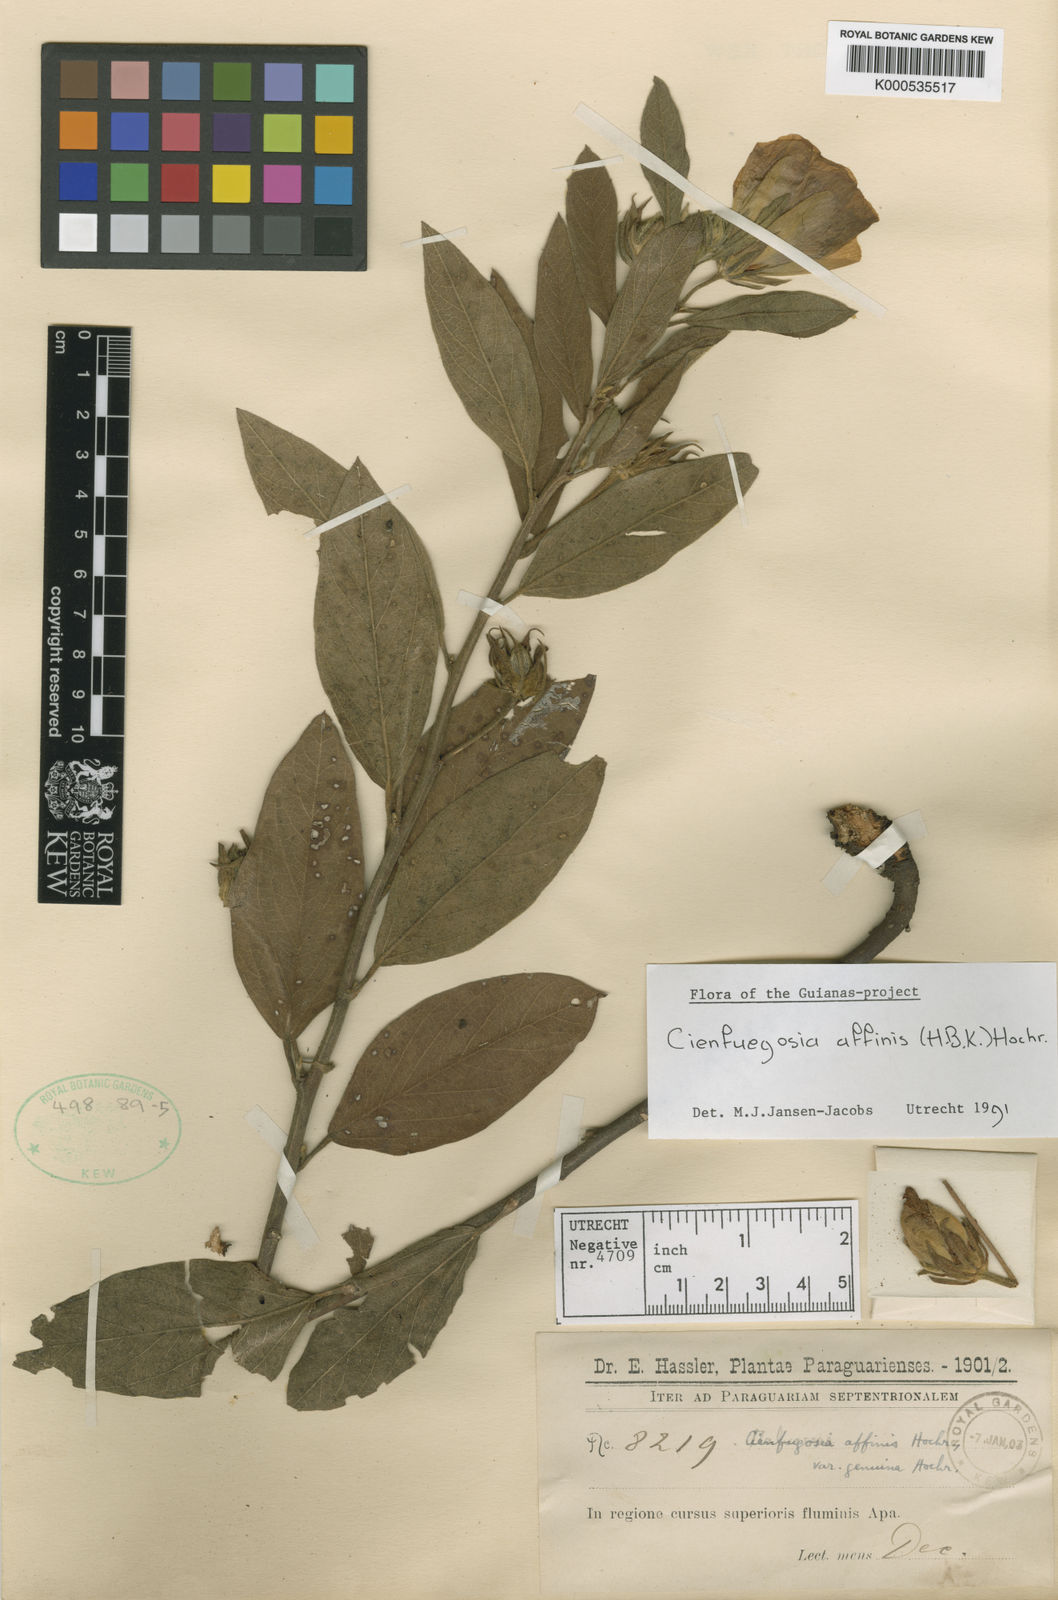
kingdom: Plantae
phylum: Tracheophyta
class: Magnoliopsida
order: Malvales
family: Malvaceae
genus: Cienfuegosia
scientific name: Cienfuegosia affinis
